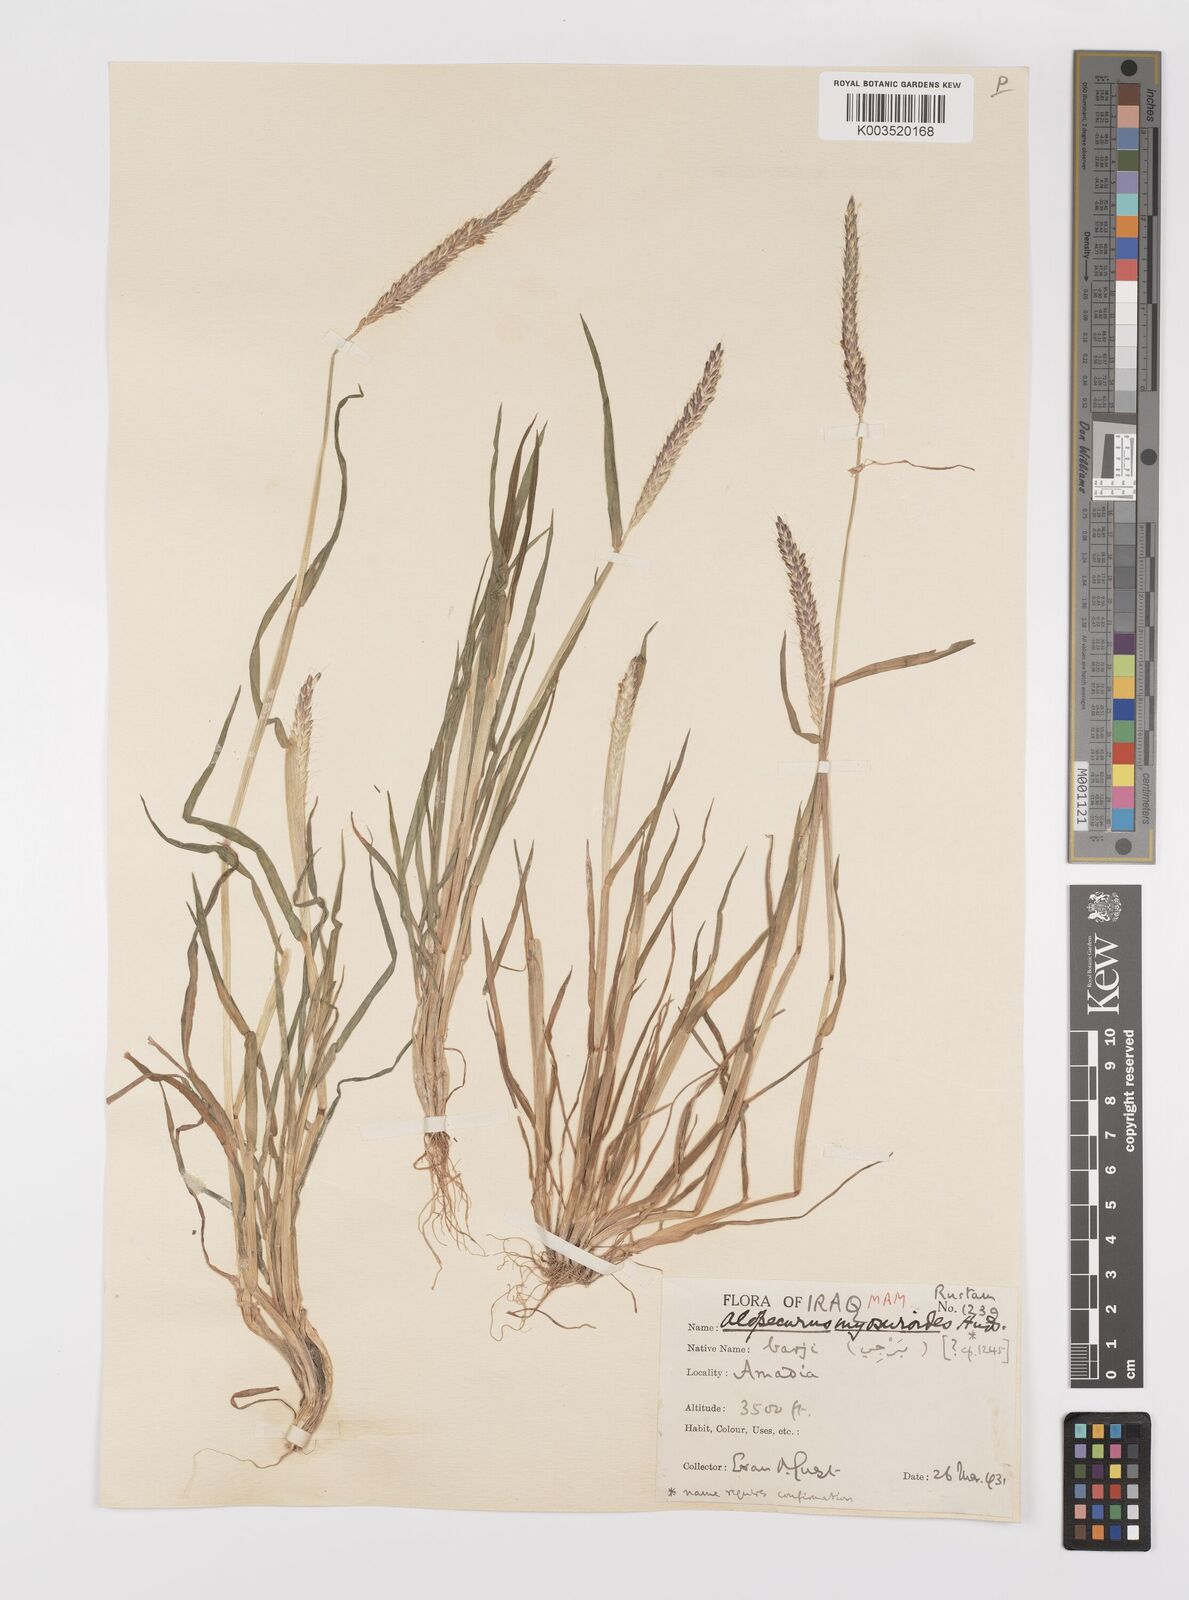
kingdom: Plantae
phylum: Tracheophyta
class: Liliopsida
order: Poales
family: Poaceae
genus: Alopecurus
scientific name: Alopecurus myosuroides
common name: Black-grass
